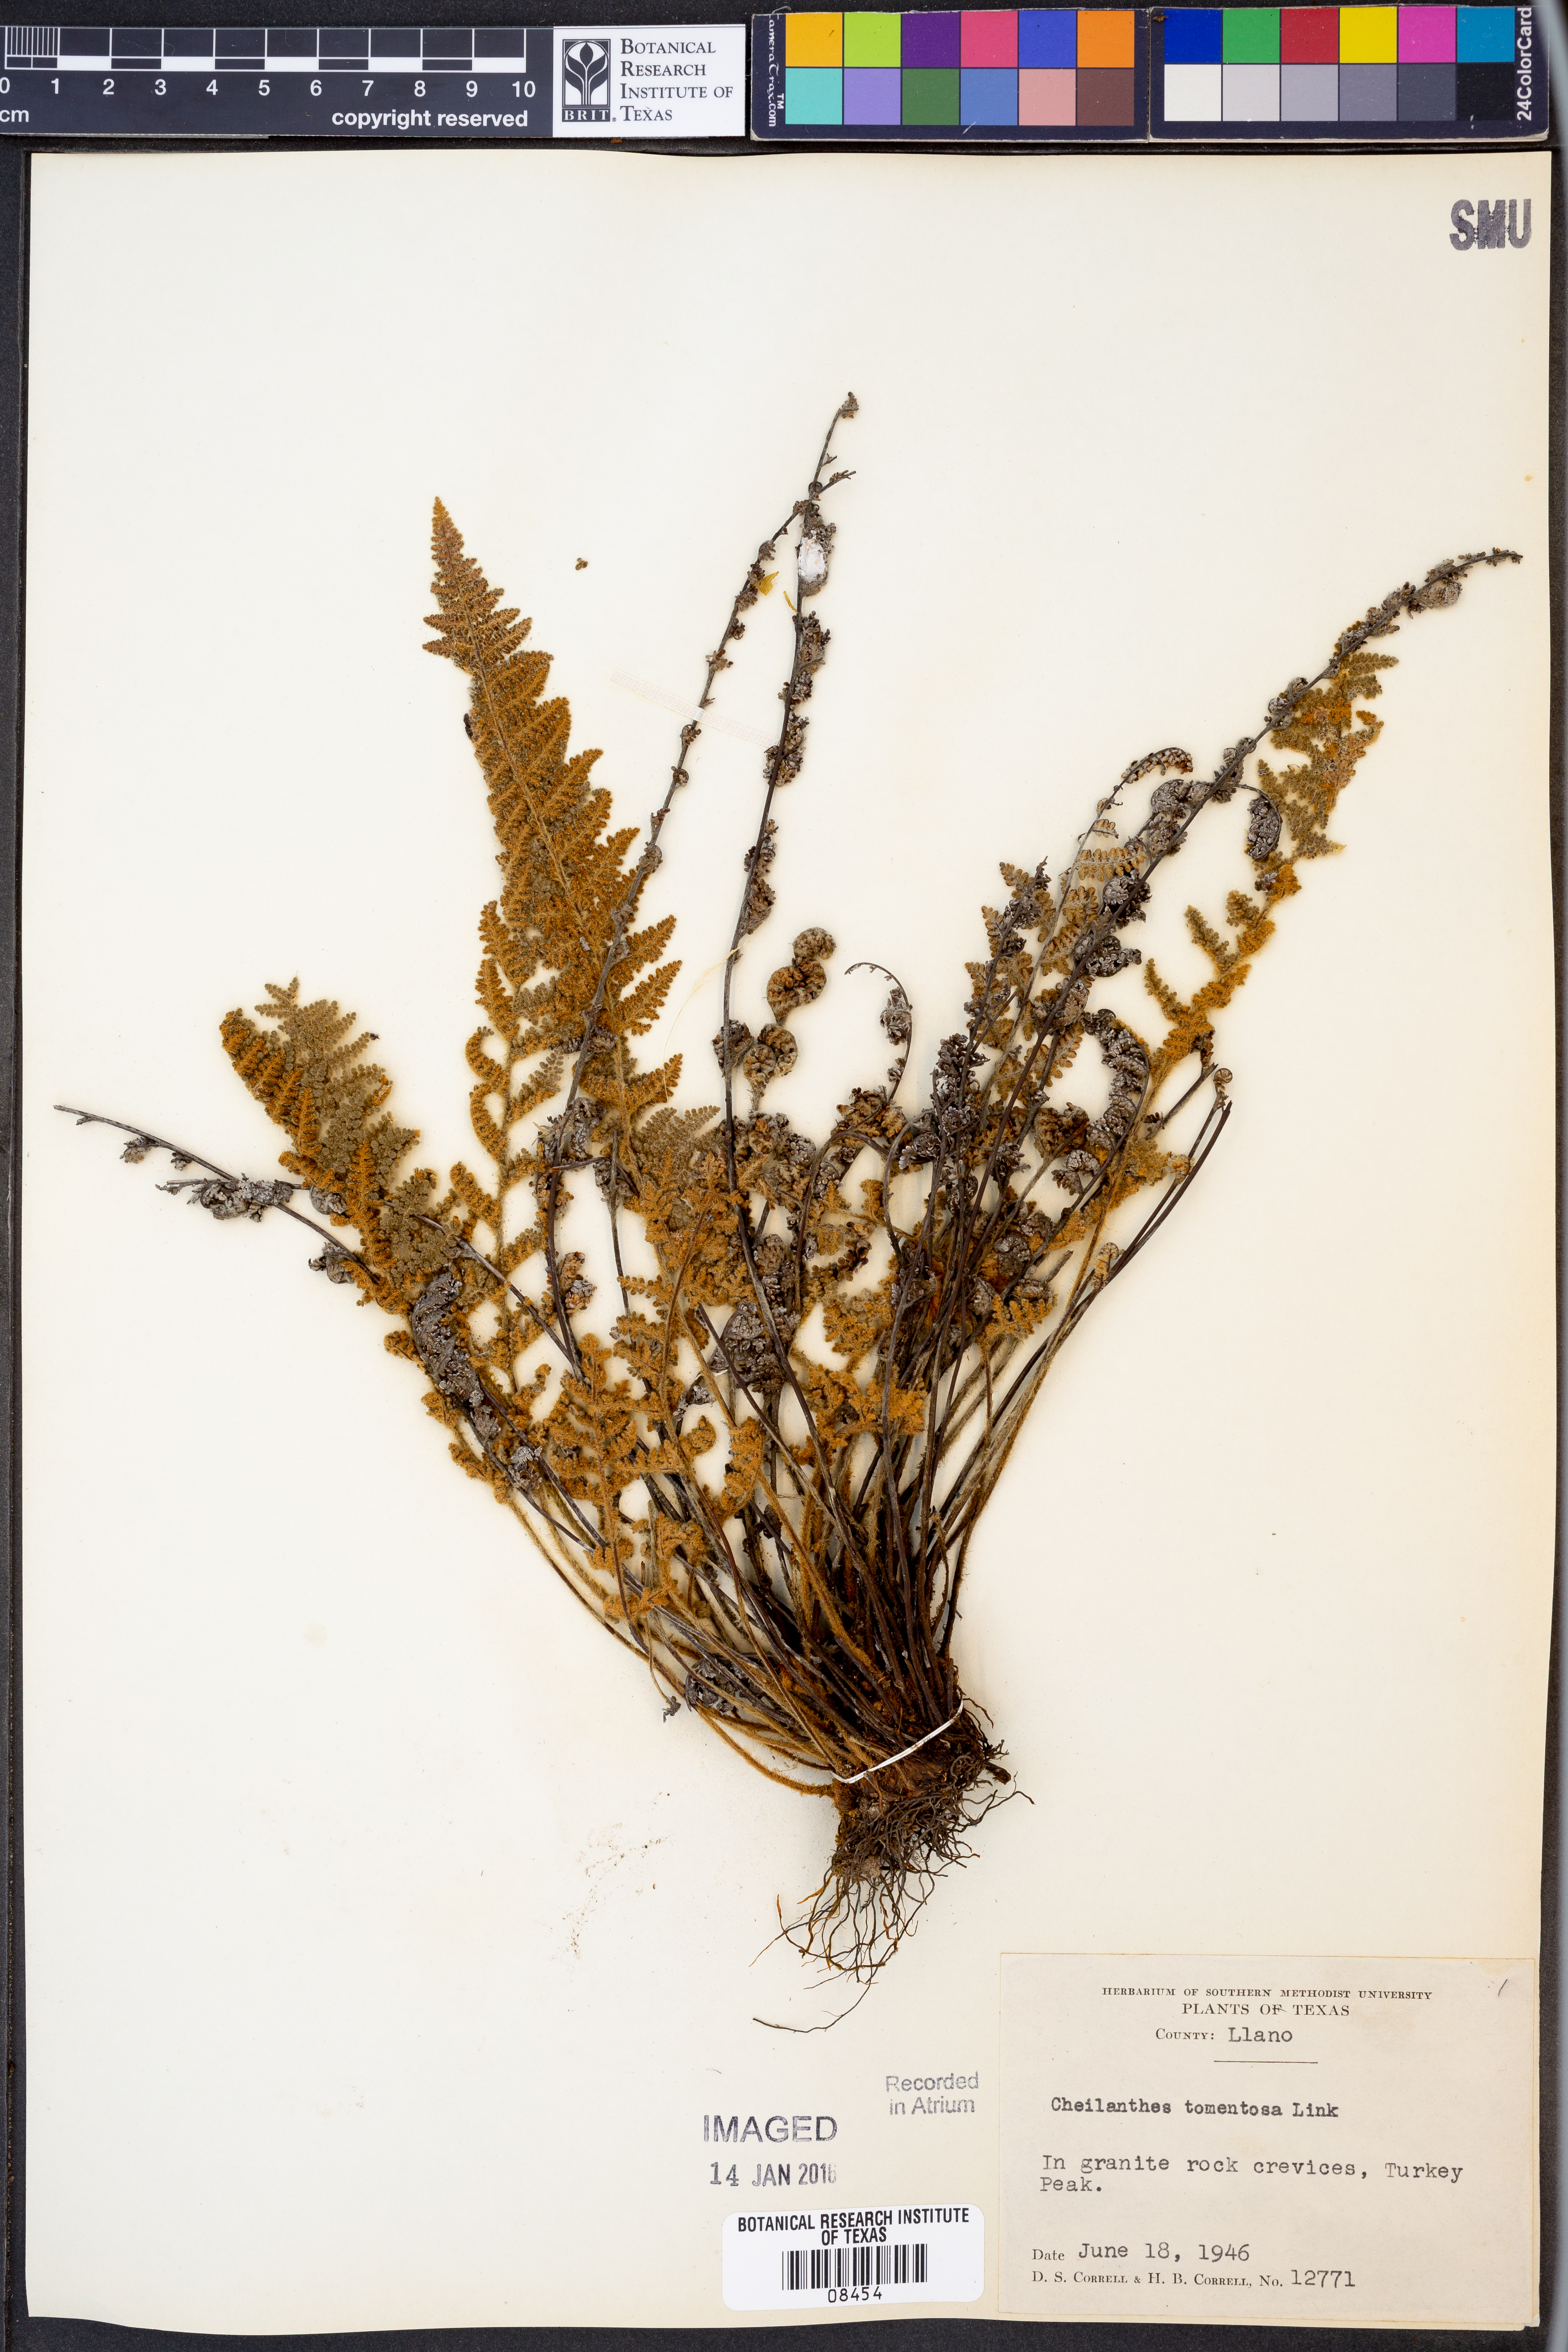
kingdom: Plantae
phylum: Tracheophyta
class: Polypodiopsida
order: Polypodiales
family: Pteridaceae
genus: Myriopteris
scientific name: Myriopteris tomentosa
